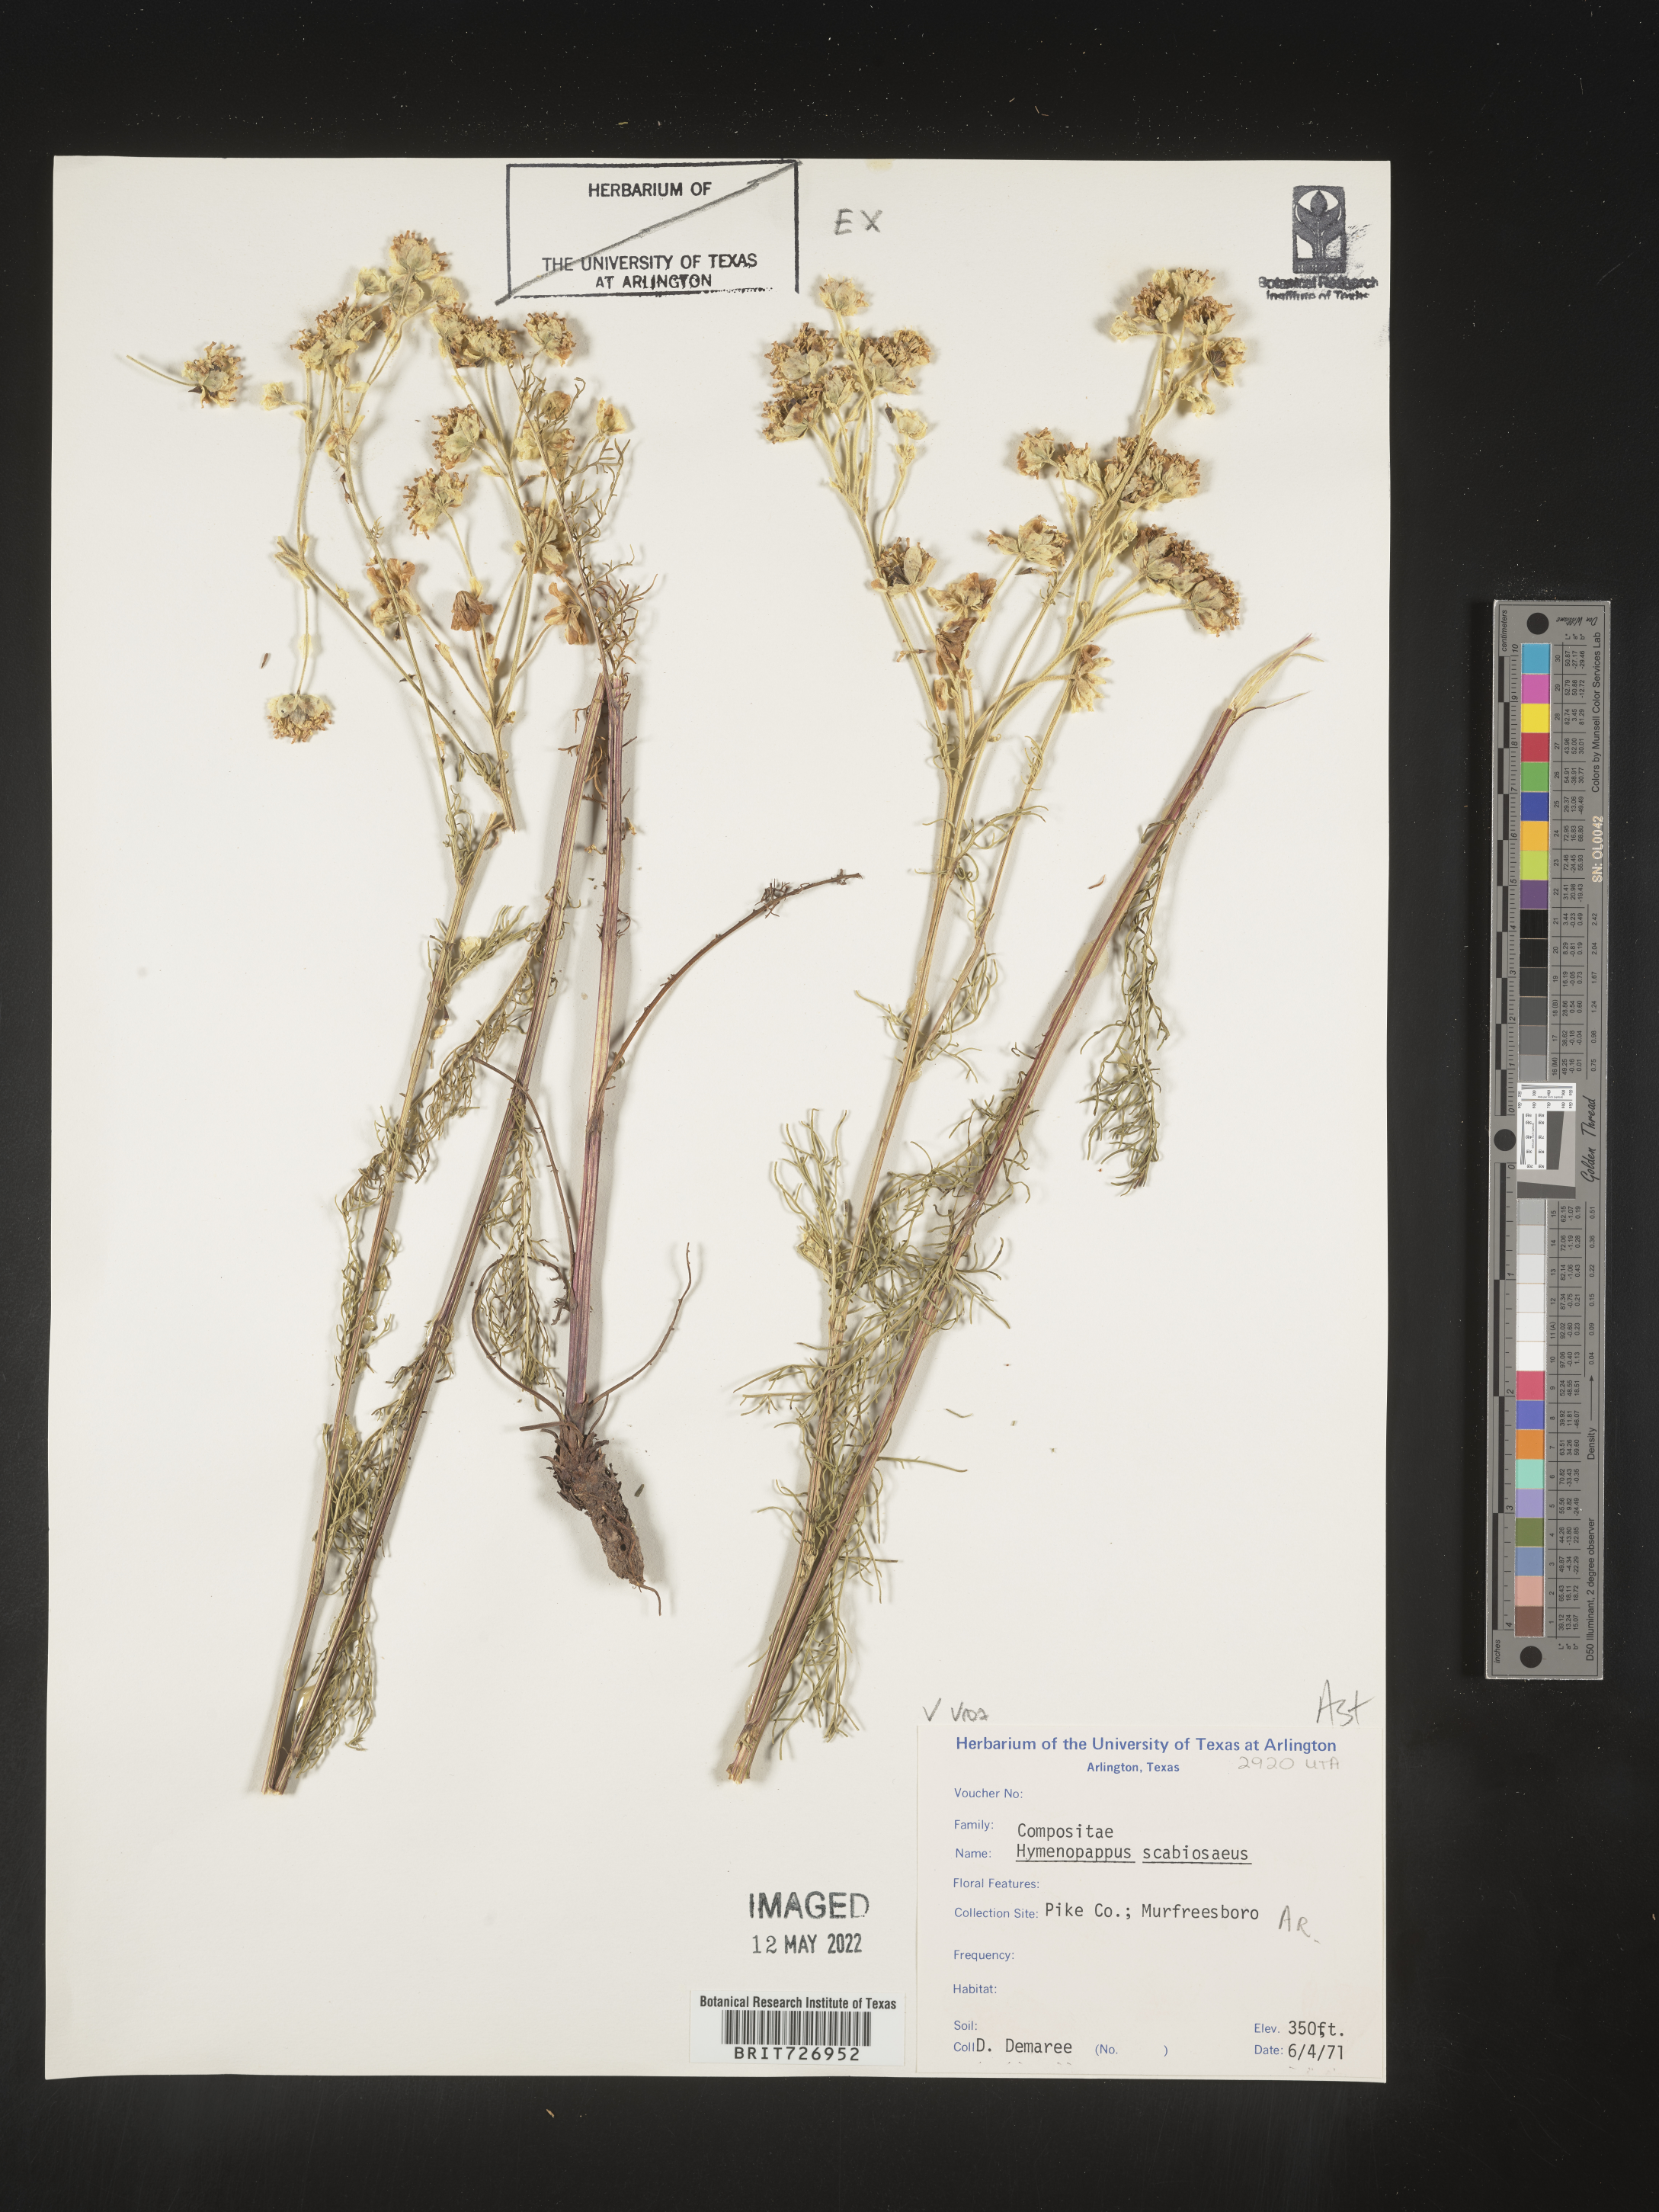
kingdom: Plantae
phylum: Tracheophyta
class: Magnoliopsida
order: Asterales
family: Asteraceae
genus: Hymenopappus
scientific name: Hymenopappus scabiosaeus
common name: Carolina woollywhite
